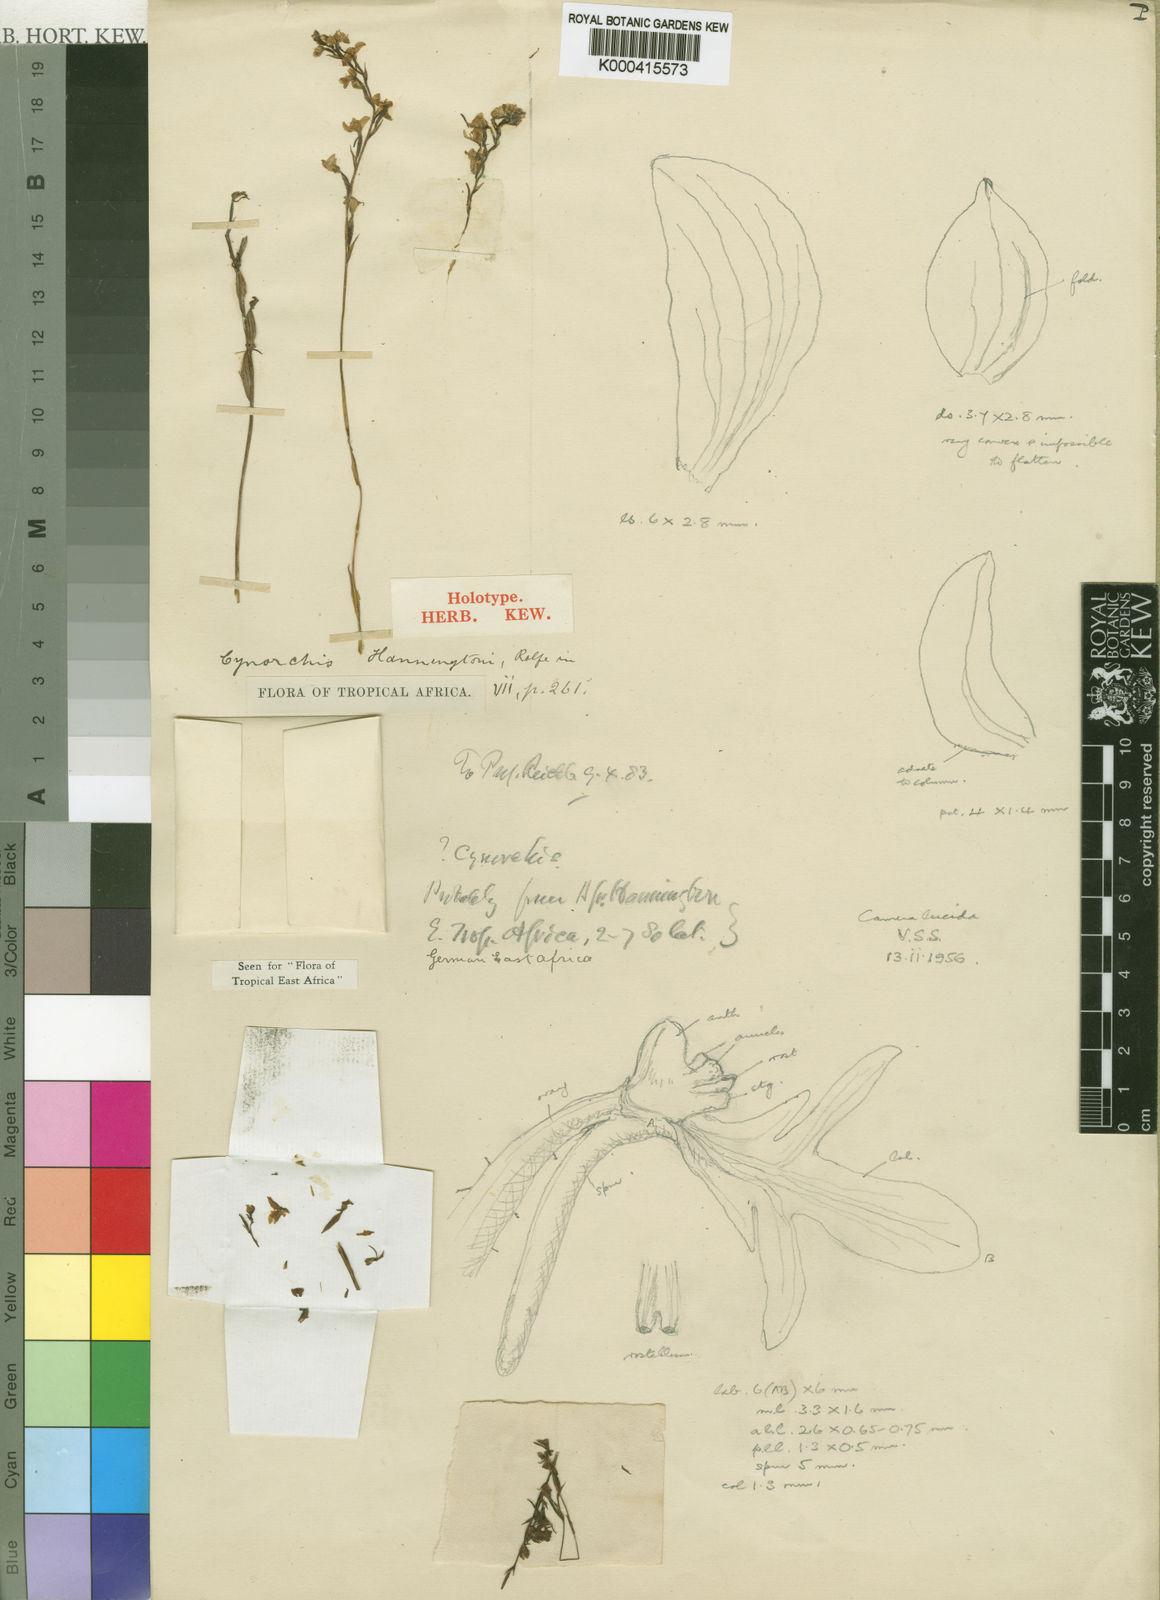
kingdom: Plantae
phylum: Tracheophyta
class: Liliopsida
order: Asparagales
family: Orchidaceae
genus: Cynorkis
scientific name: Cynorkis debilis
